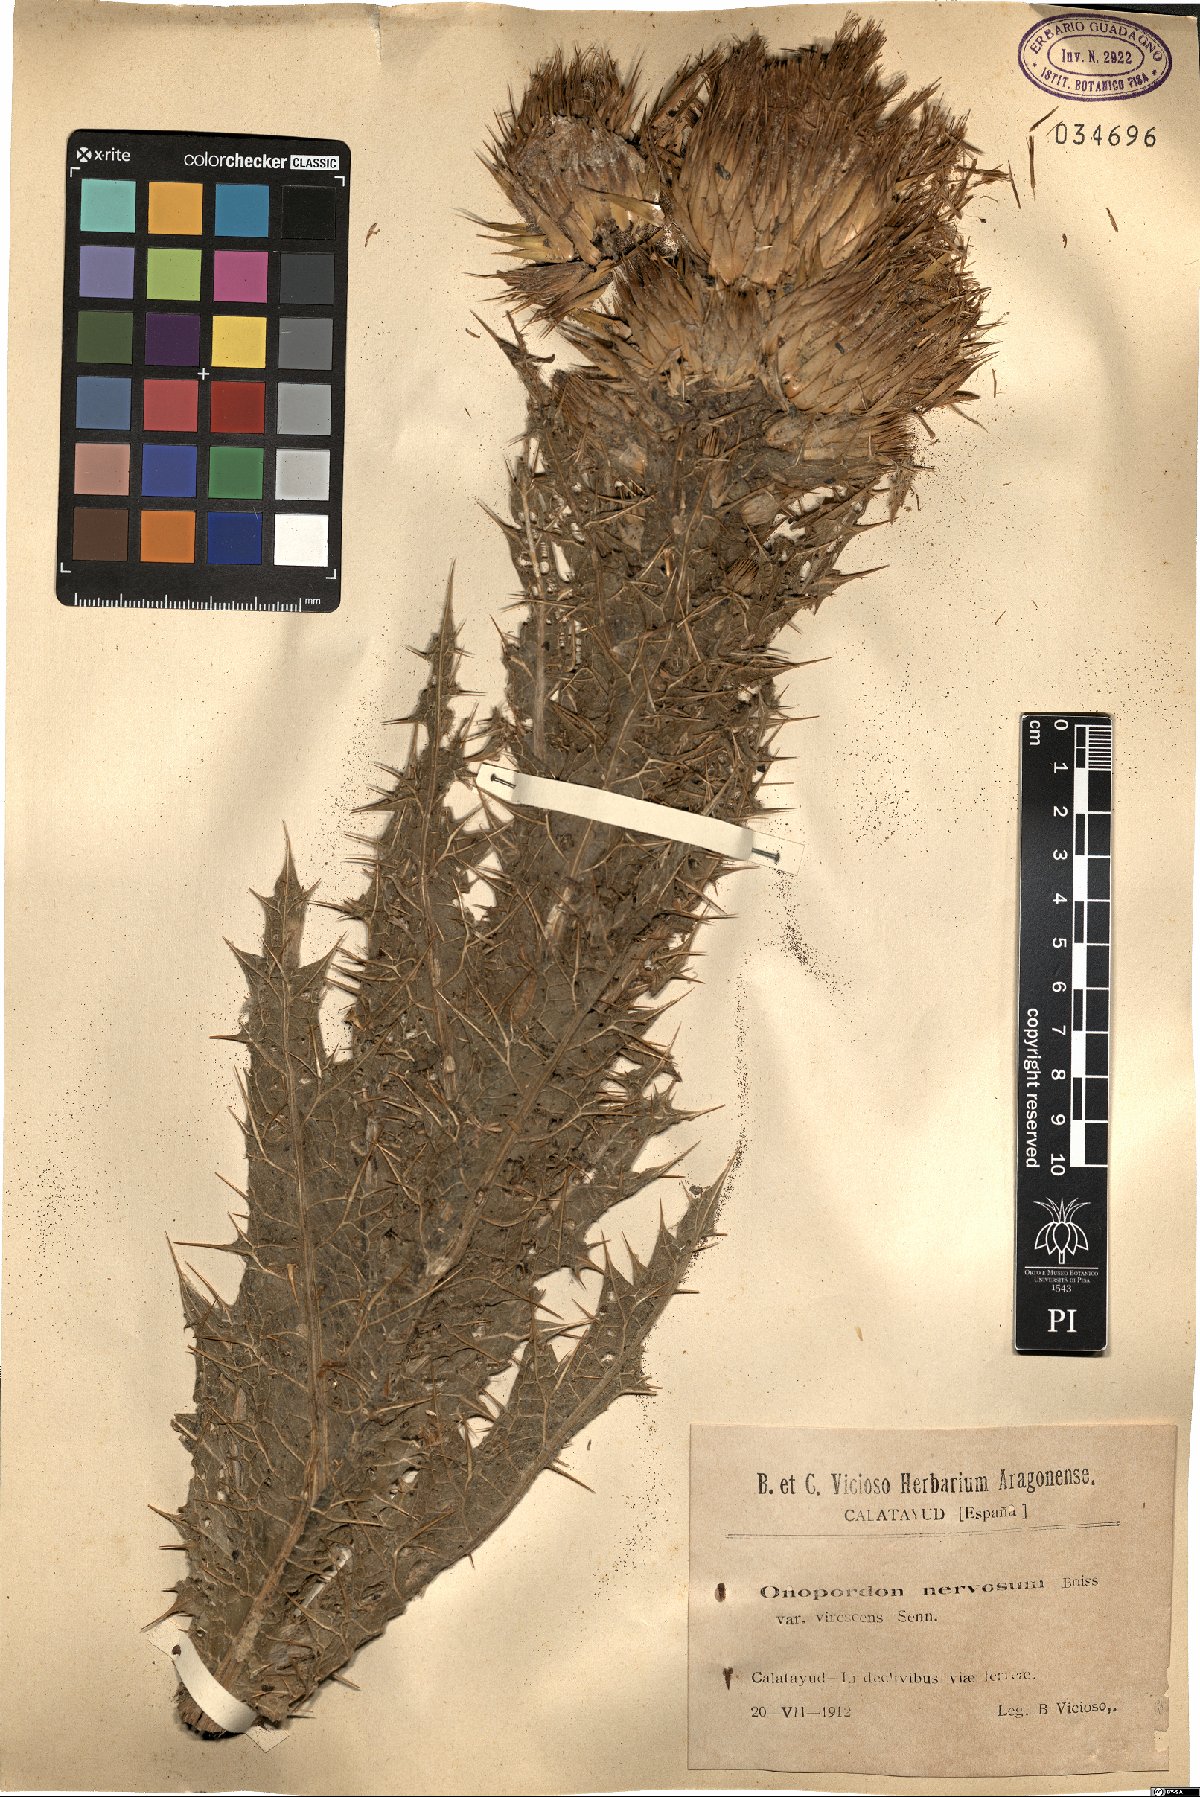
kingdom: Plantae
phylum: Tracheophyta
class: Magnoliopsida
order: Asterales
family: Asteraceae
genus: Onopordum
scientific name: Onopordum nervosum
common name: Reticulate thistle
